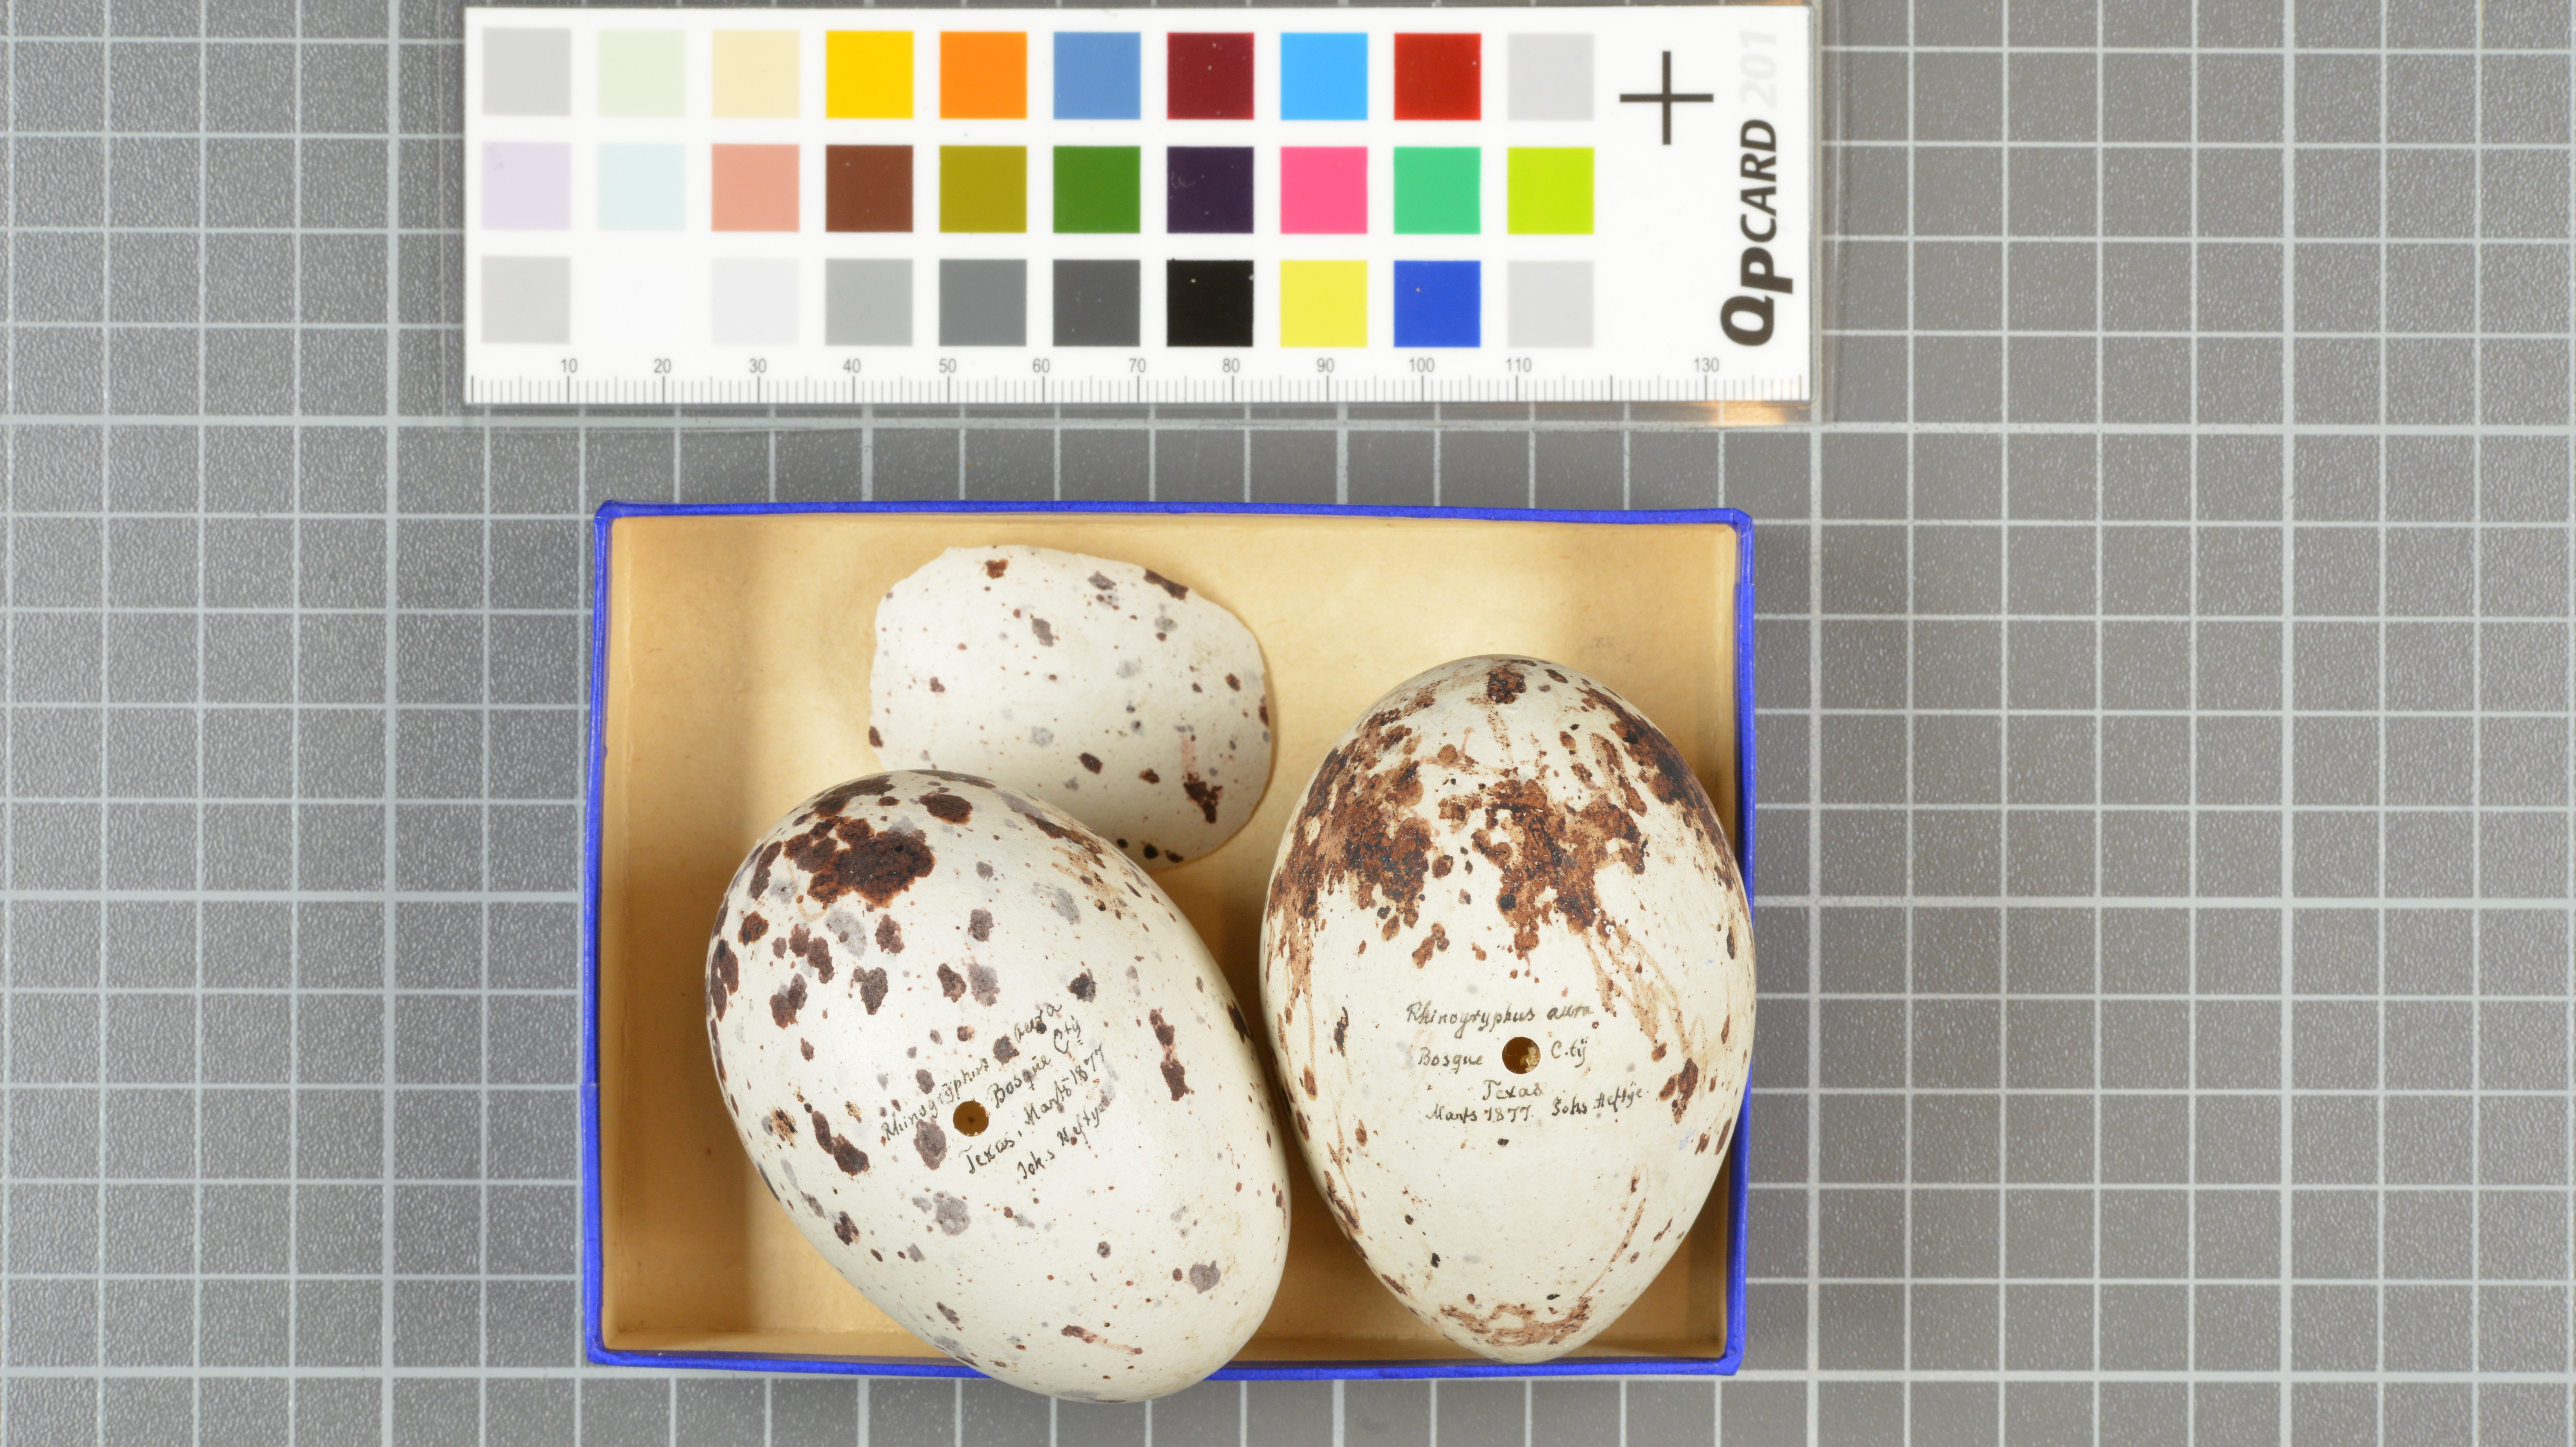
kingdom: Animalia
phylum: Chordata
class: Aves
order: Accipitriformes
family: Cathartidae
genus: Cathartes
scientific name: Cathartes aura
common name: Turkey vulture
